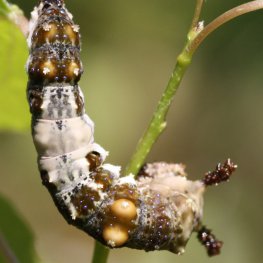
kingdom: Animalia
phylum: Arthropoda
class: Insecta
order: Lepidoptera
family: Nymphalidae
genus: Limenitis
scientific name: Limenitis arthemis
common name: Red-spotted Admiral
